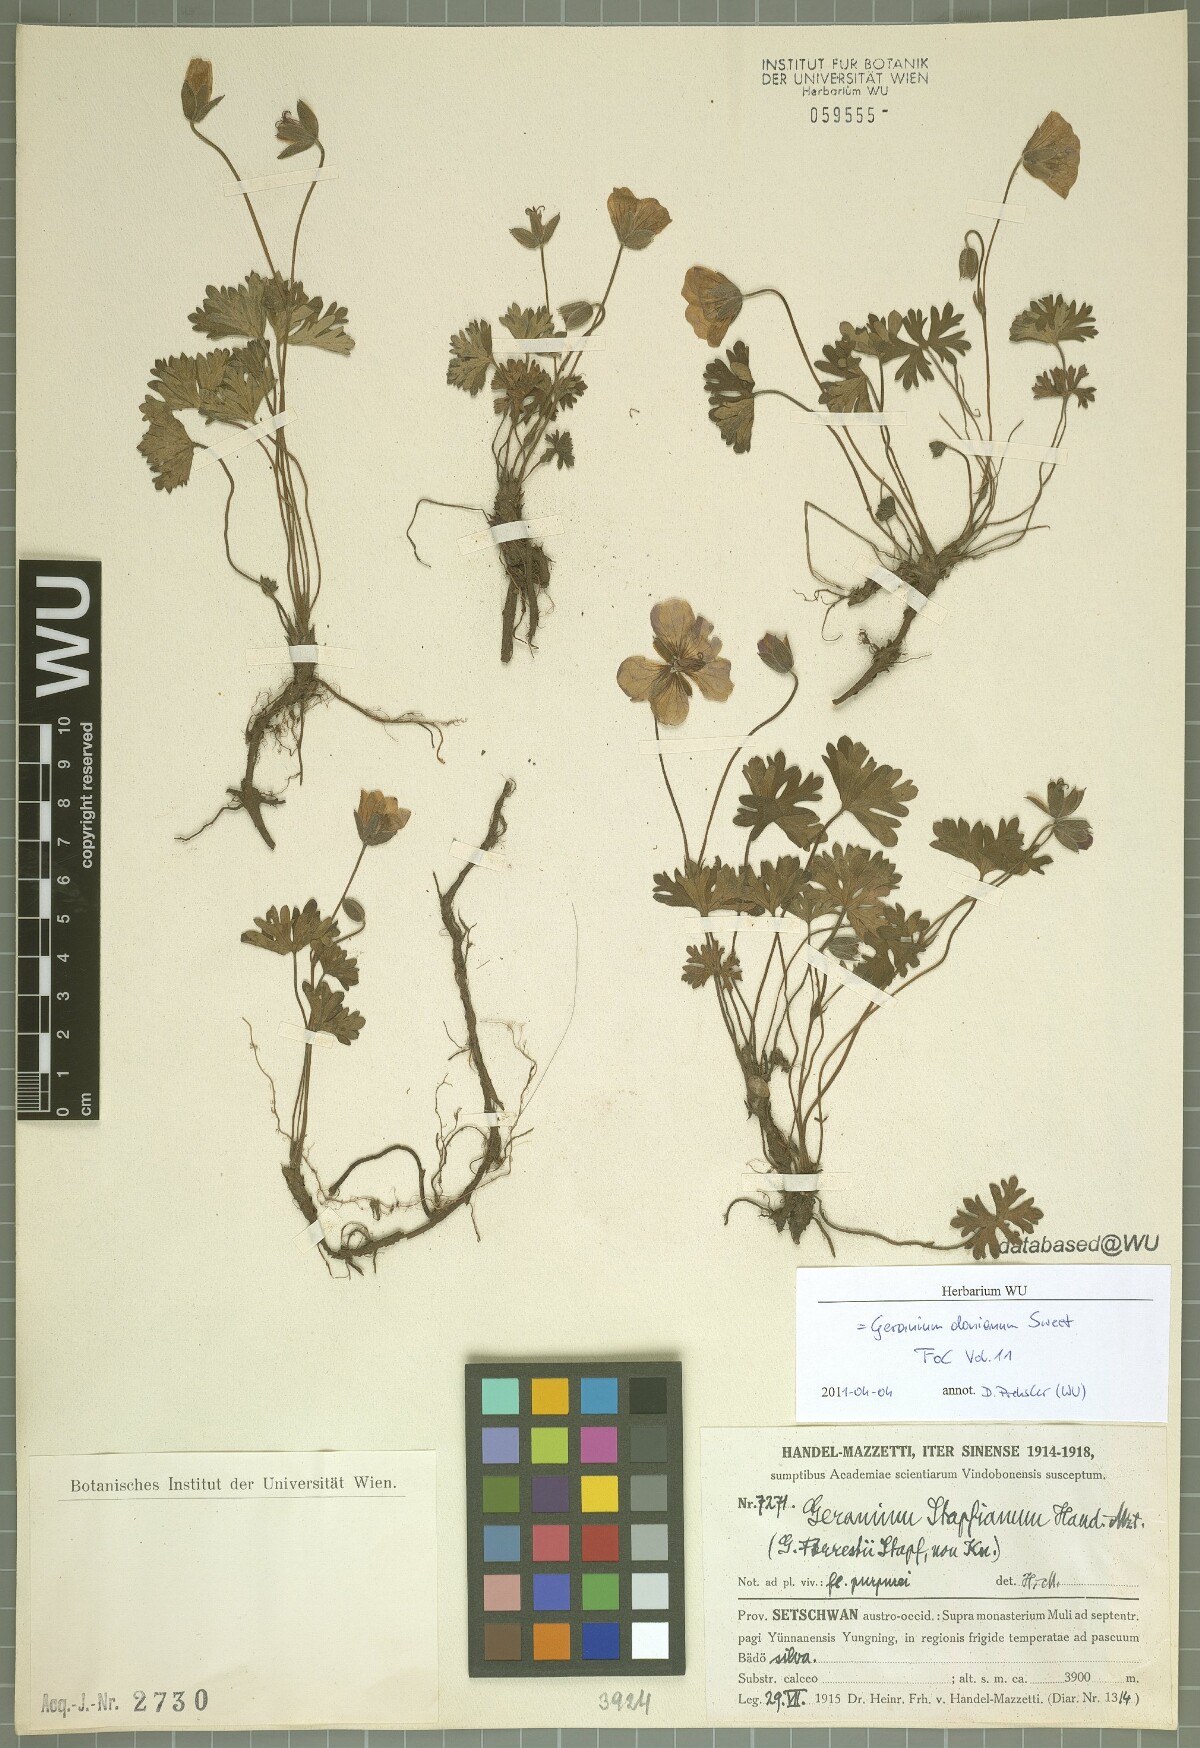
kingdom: Plantae
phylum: Tracheophyta
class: Magnoliopsida
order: Geraniales
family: Geraniaceae
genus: Geranium
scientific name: Geranium donianum
